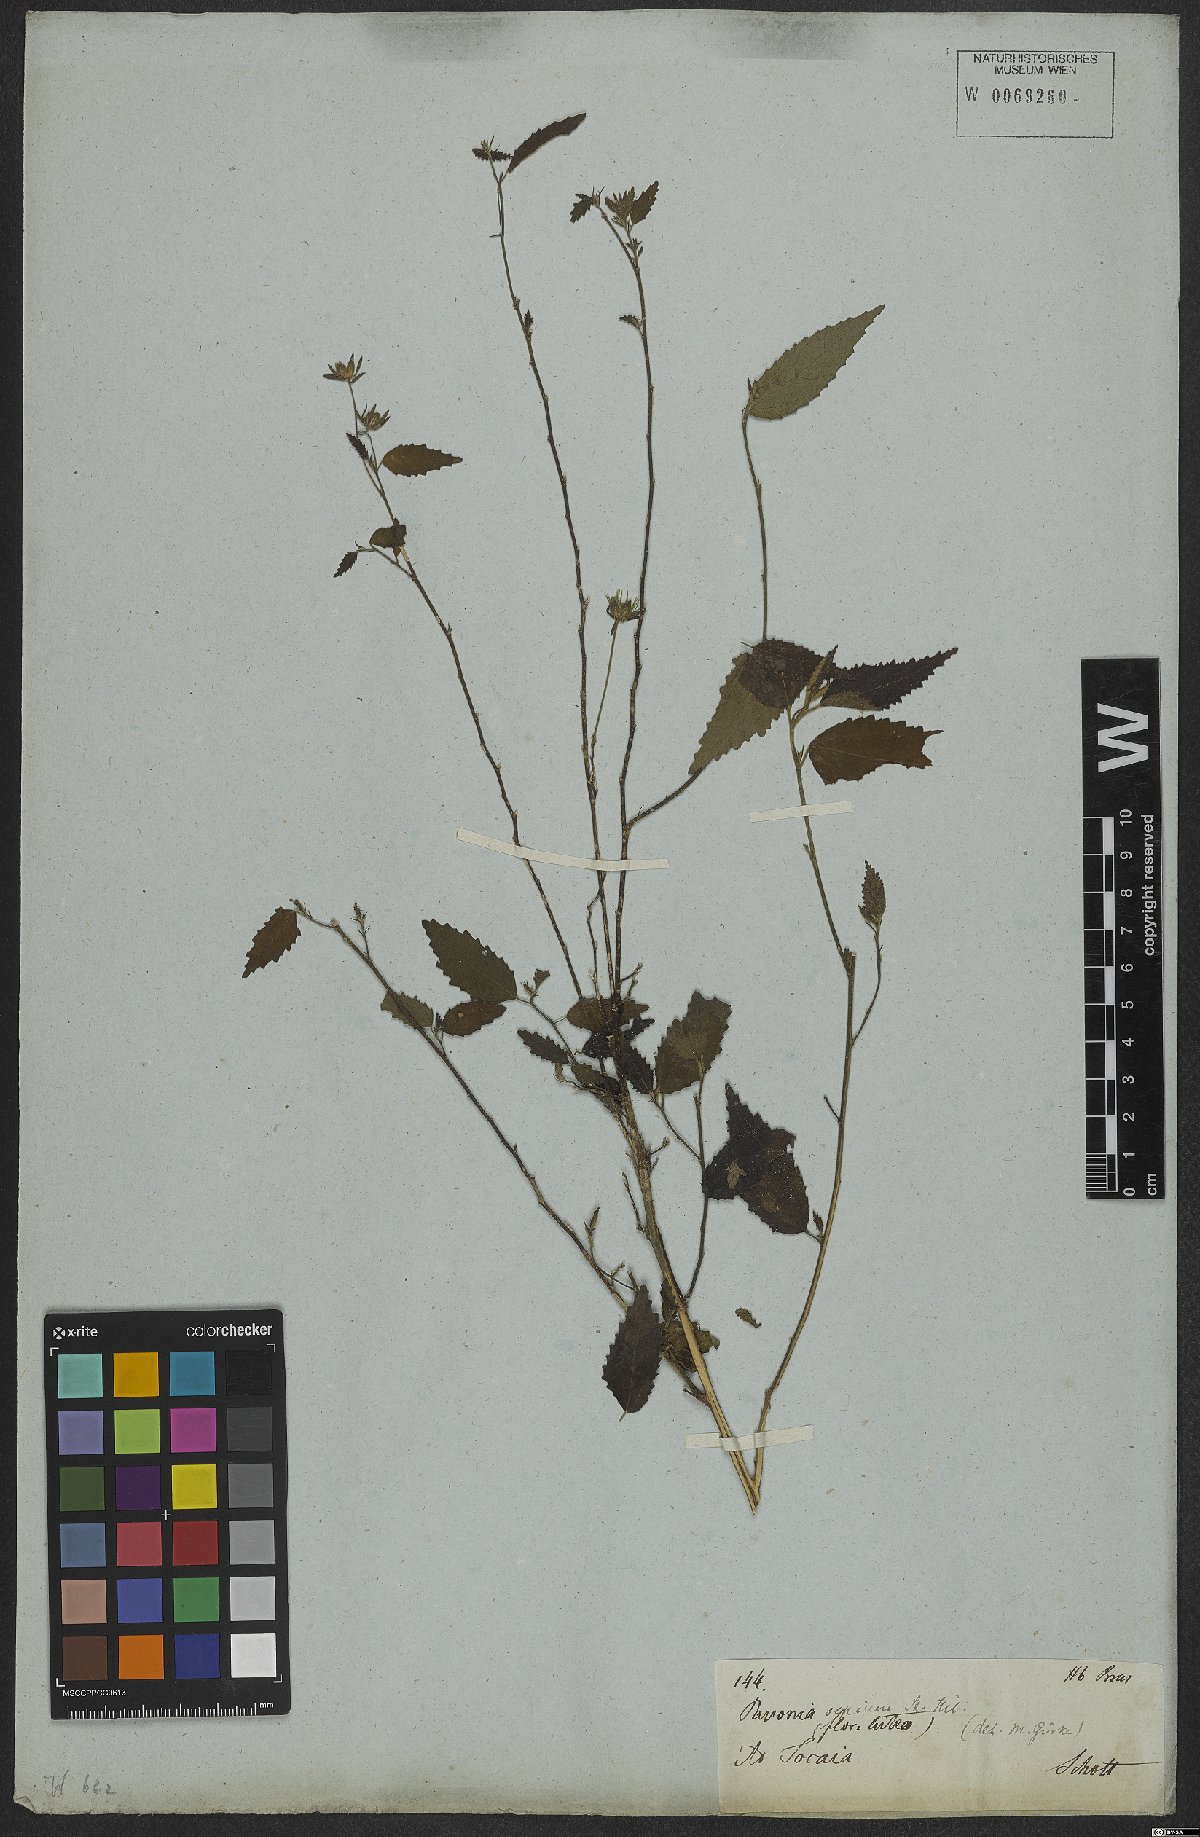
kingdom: Plantae
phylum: Tracheophyta
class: Magnoliopsida
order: Malvales
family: Malvaceae
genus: Pavonia
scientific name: Pavonia sepium
